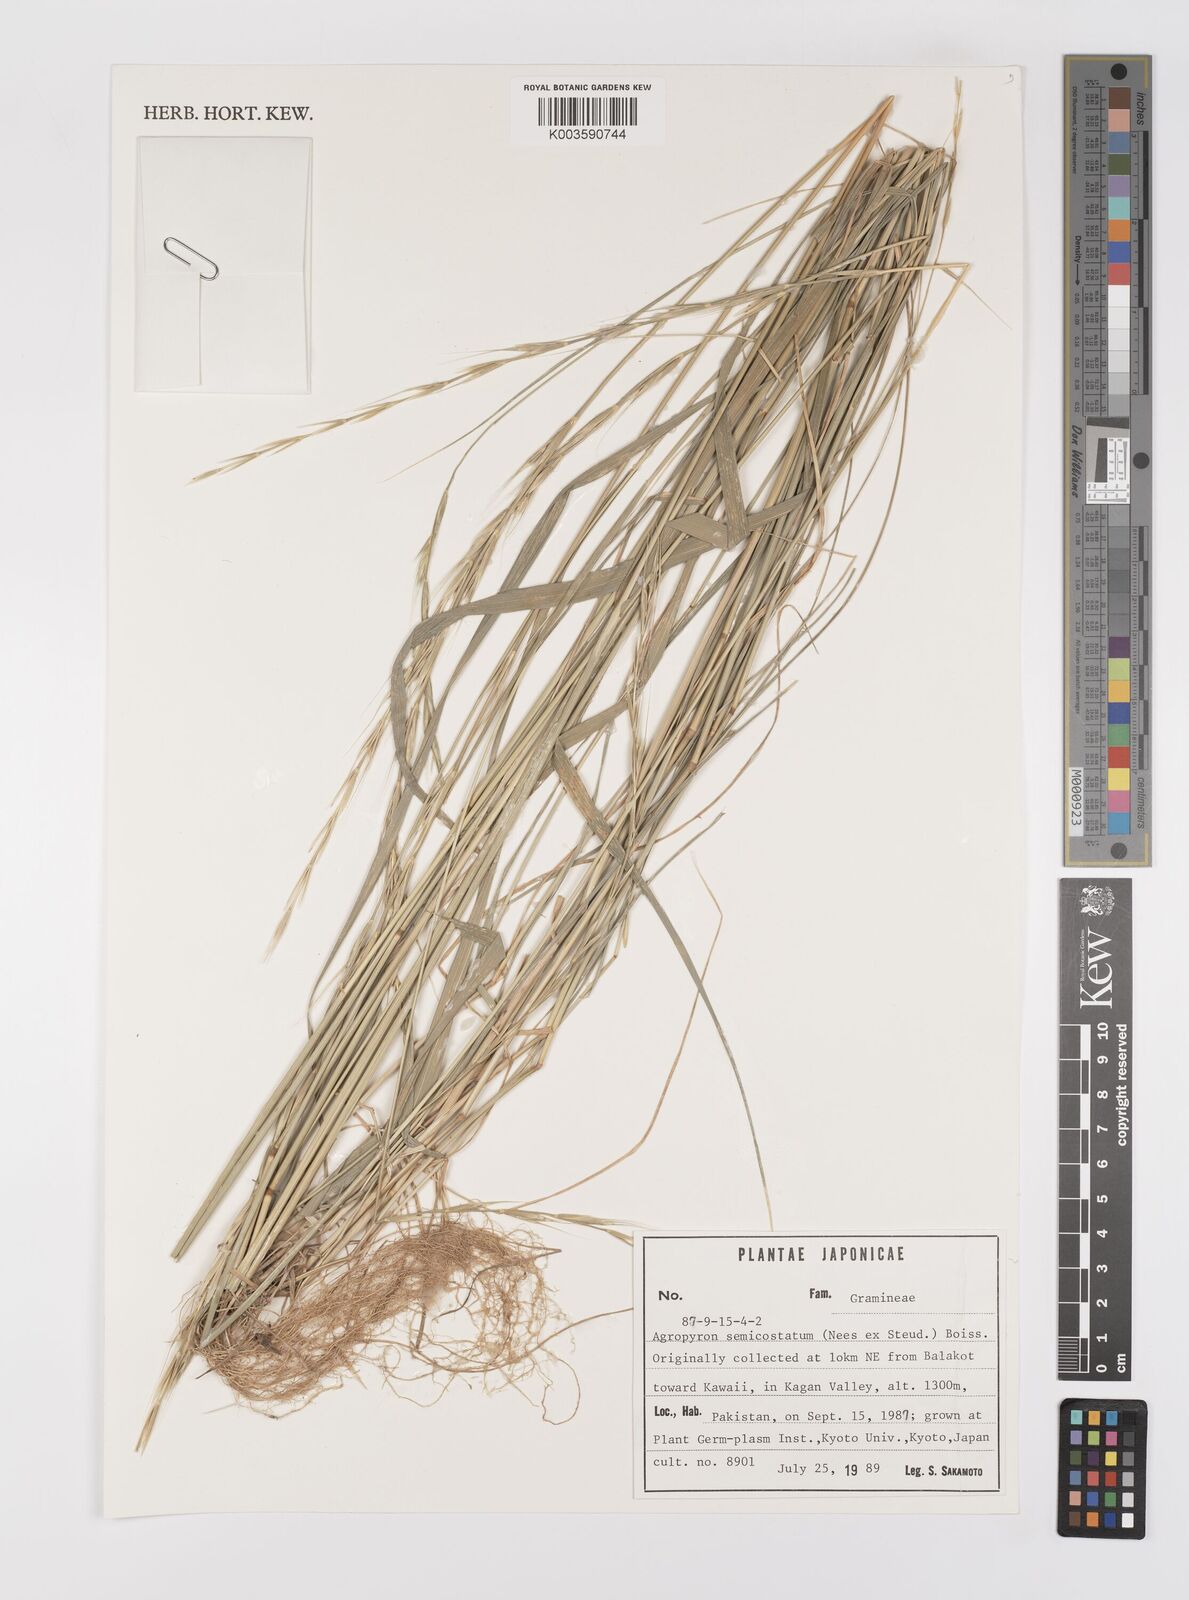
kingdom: Plantae
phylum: Tracheophyta
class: Liliopsida
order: Poales
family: Poaceae
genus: Elymus
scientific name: Elymus semicostatus
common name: Drooping wildrye
